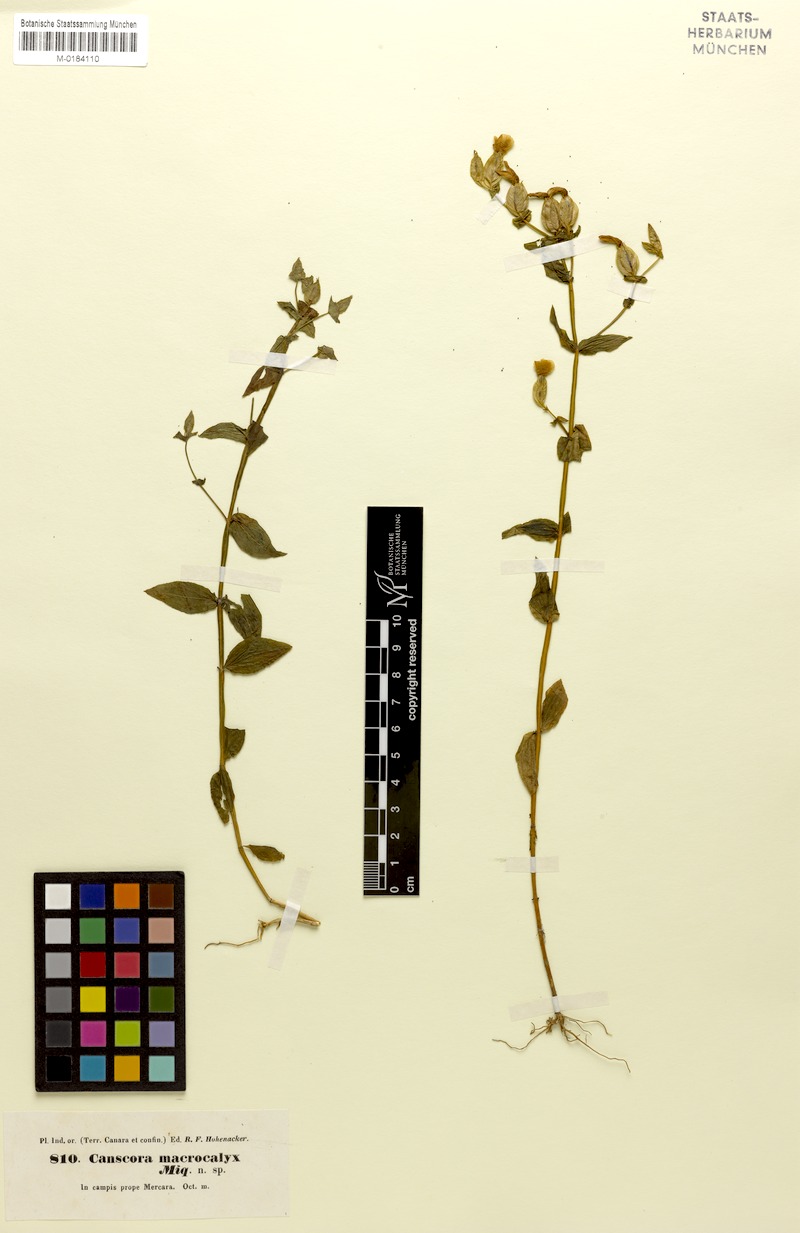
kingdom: Plantae
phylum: Tracheophyta
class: Magnoliopsida
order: Gentianales
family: Gentianaceae
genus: Canscora
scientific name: Canscora perfoliata
